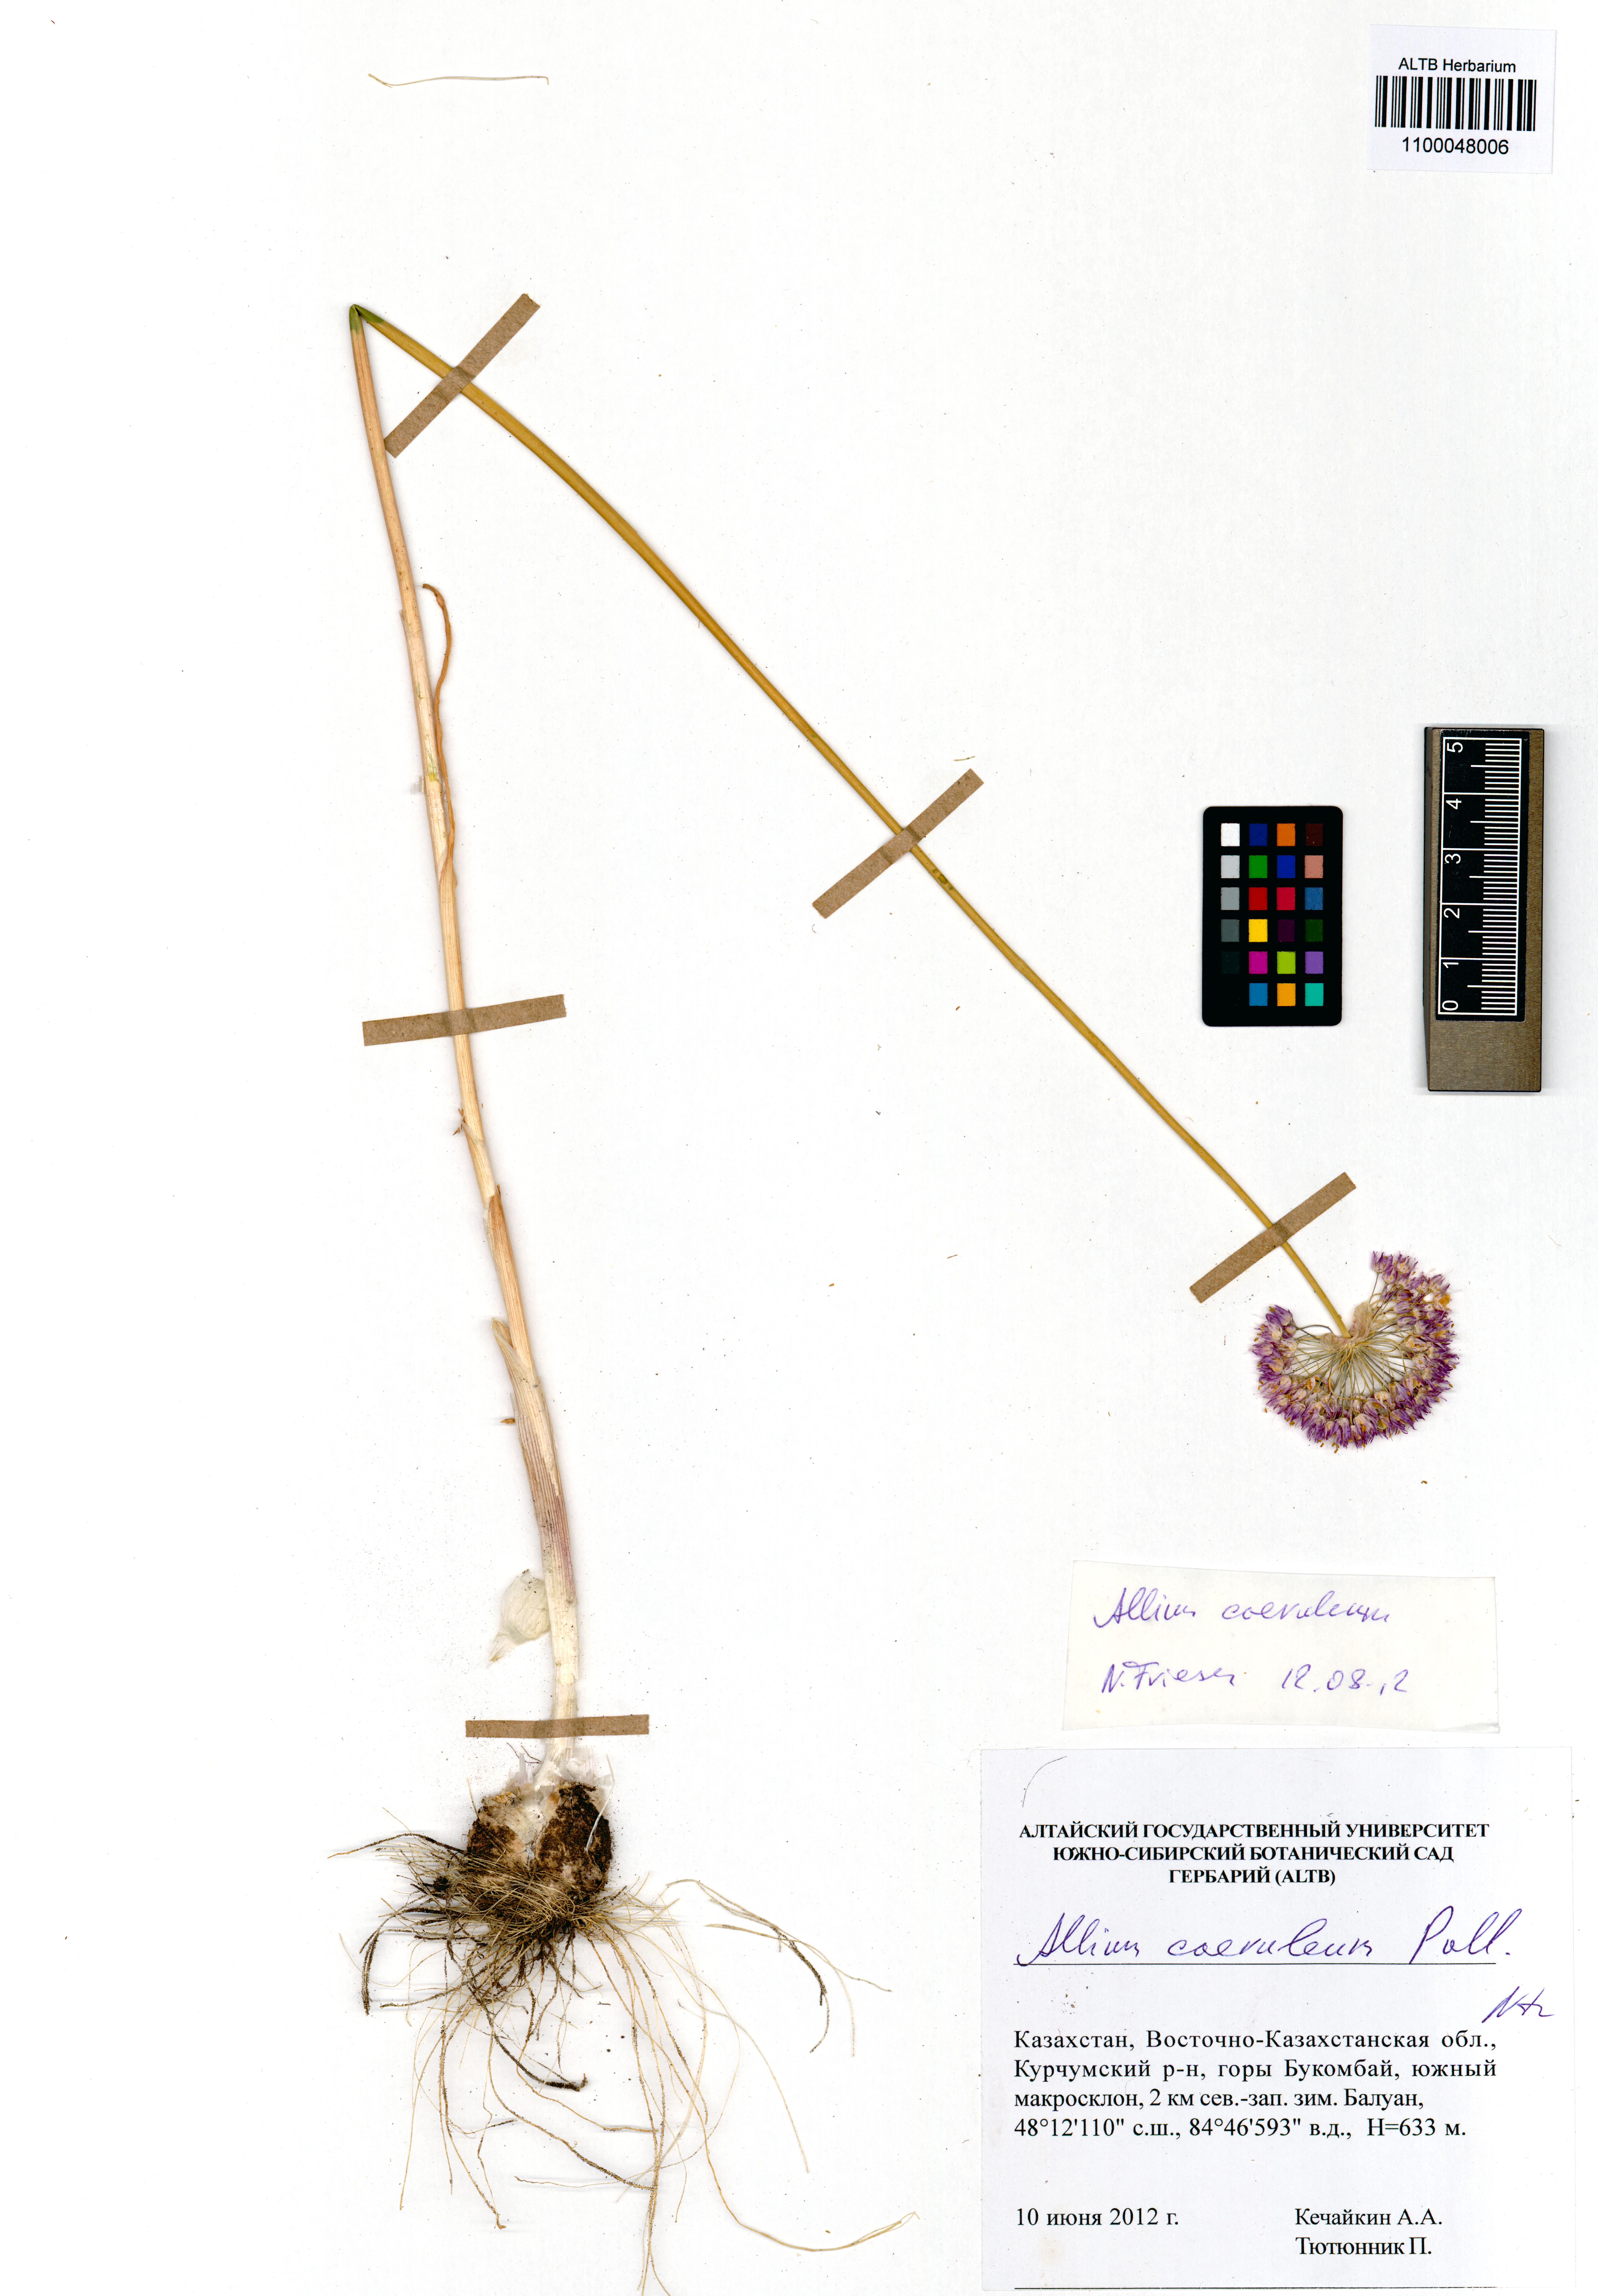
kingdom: Plantae
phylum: Tracheophyta
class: Liliopsida
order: Asparagales
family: Amaryllidaceae
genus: Allium
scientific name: Allium caeruleum
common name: Blue-of-the-heavens
